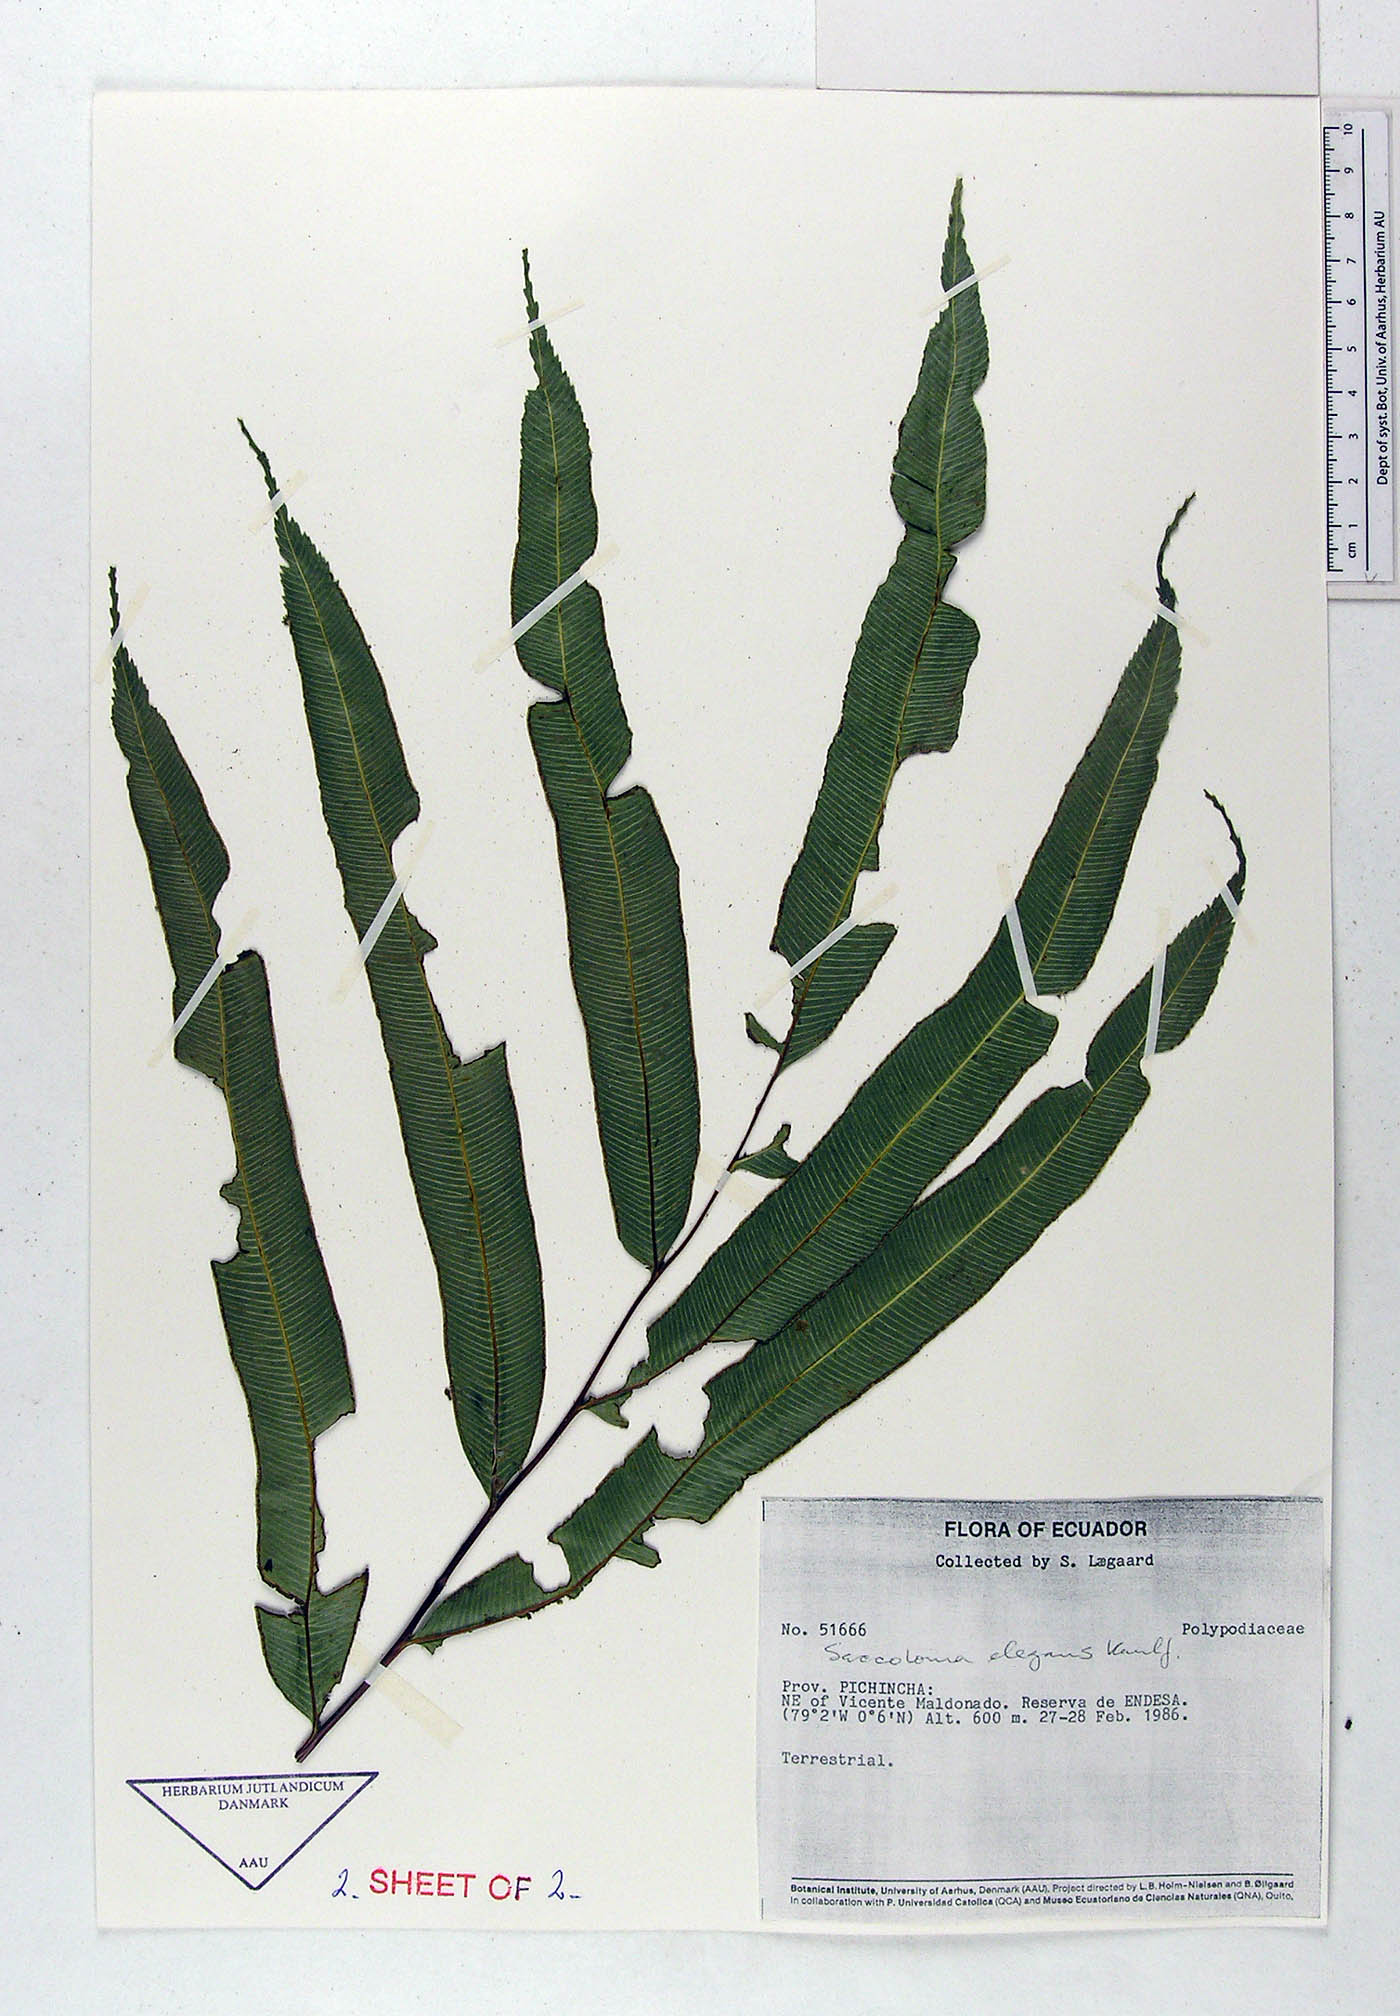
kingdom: Plantae
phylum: Tracheophyta
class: Polypodiopsida
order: Polypodiales
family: Polypodiaceae
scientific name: Polypodiaceae
